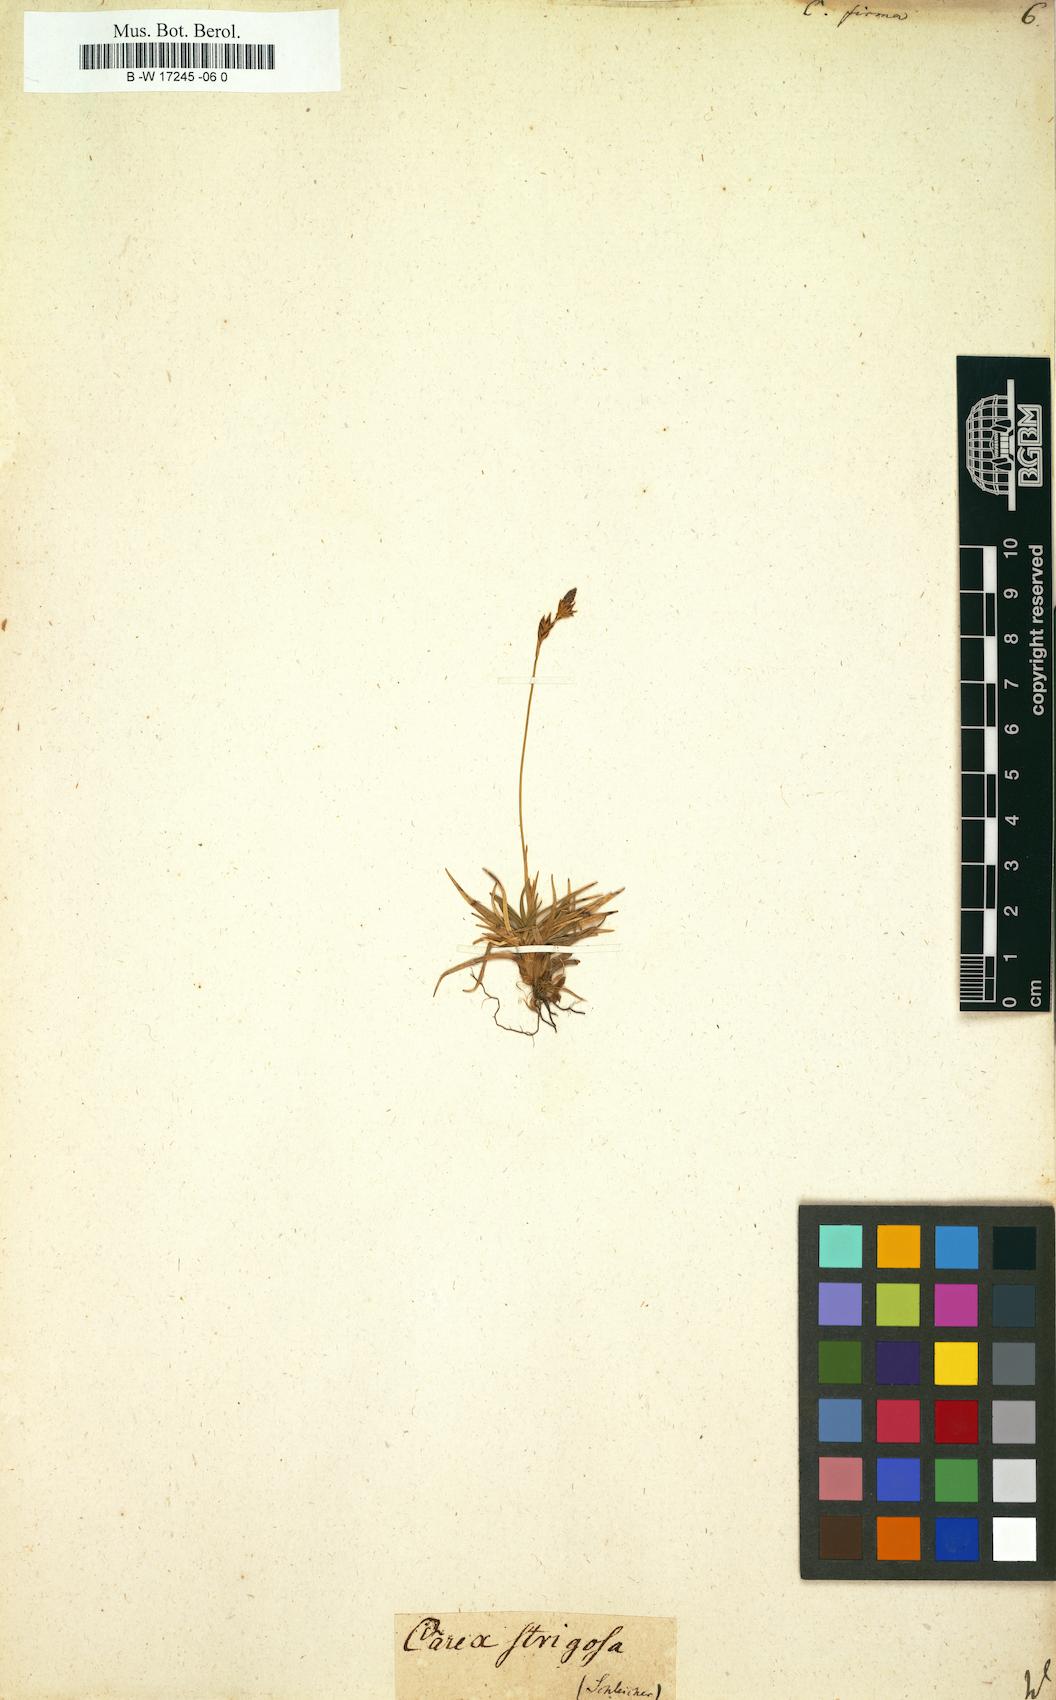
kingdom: Plantae
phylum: Tracheophyta
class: Liliopsida
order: Poales
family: Cyperaceae
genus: Carex
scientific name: Carex firma
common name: Dwarf pillow sedge
